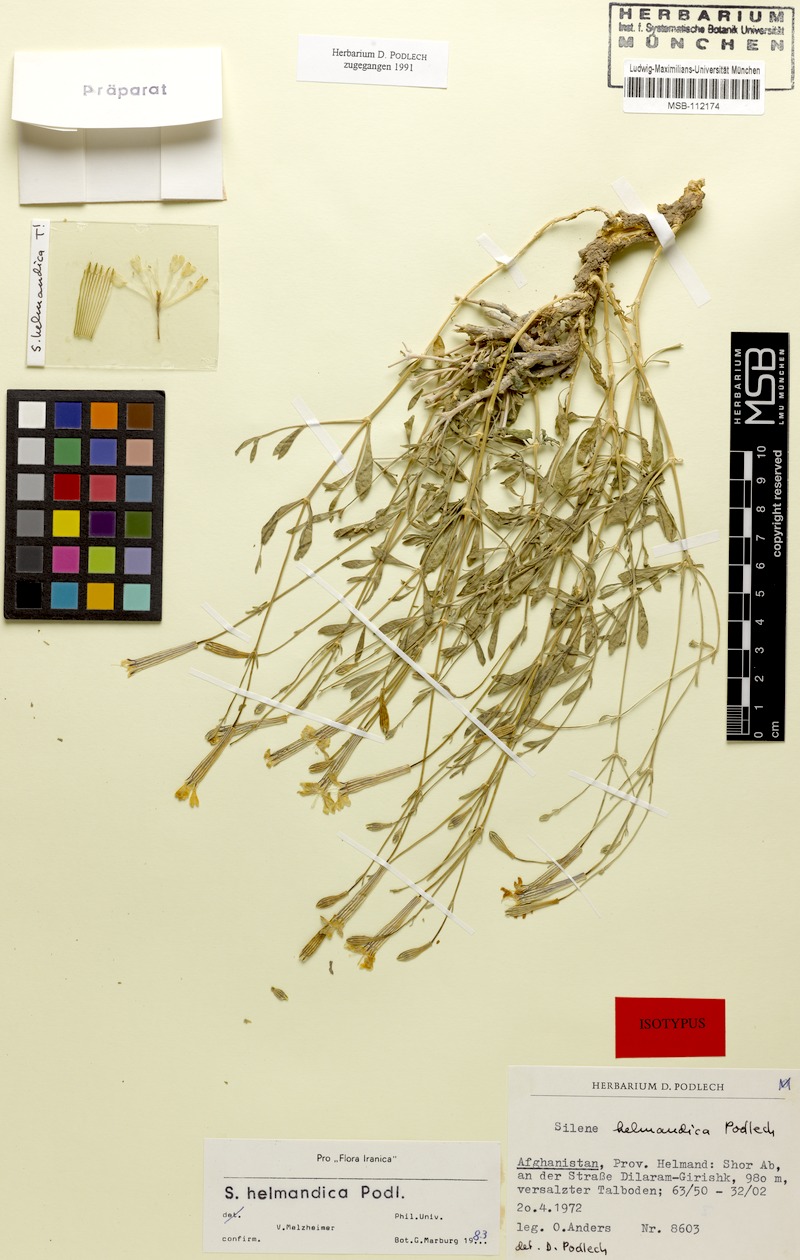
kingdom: Plantae
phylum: Tracheophyta
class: Magnoliopsida
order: Caryophyllales
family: Caryophyllaceae
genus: Silene
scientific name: Silene helmandica
